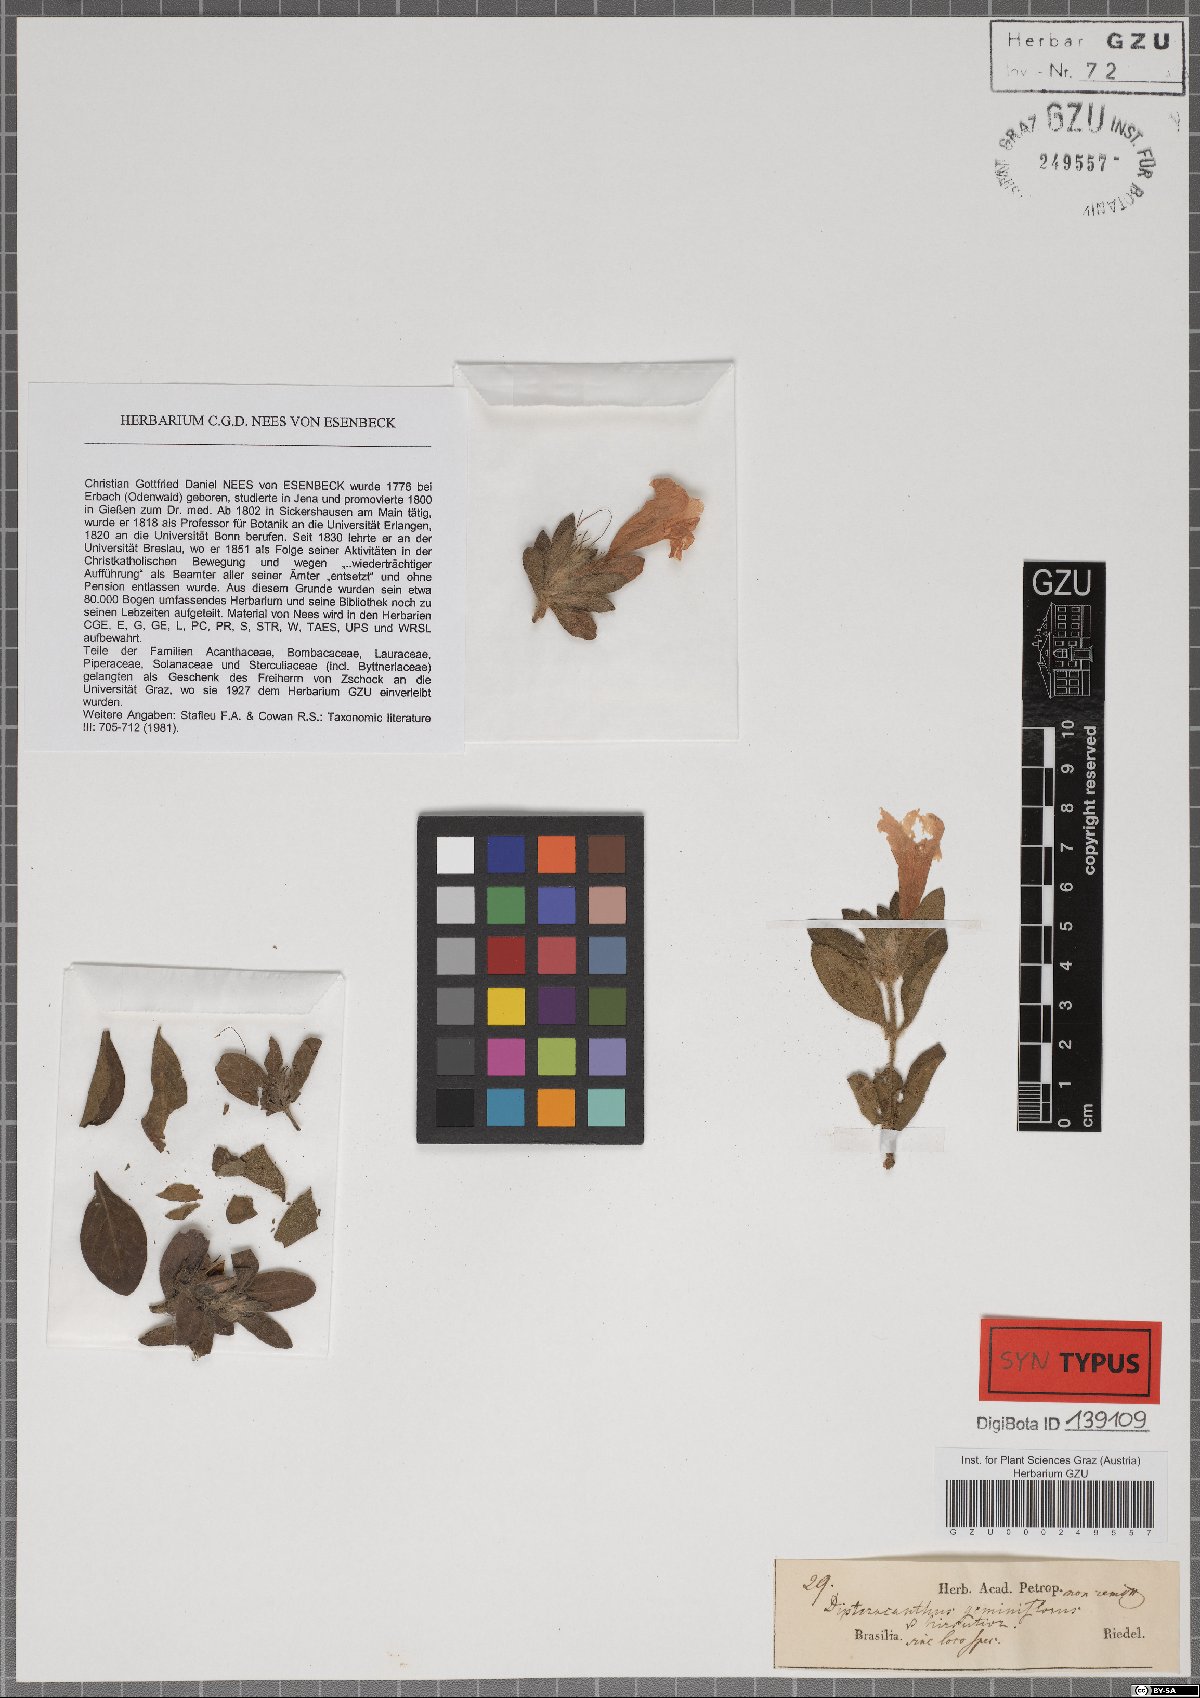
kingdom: Plantae
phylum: Tracheophyta
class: Magnoliopsida
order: Lamiales
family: Acanthaceae
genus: Ruellia
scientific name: Ruellia geminiflora
